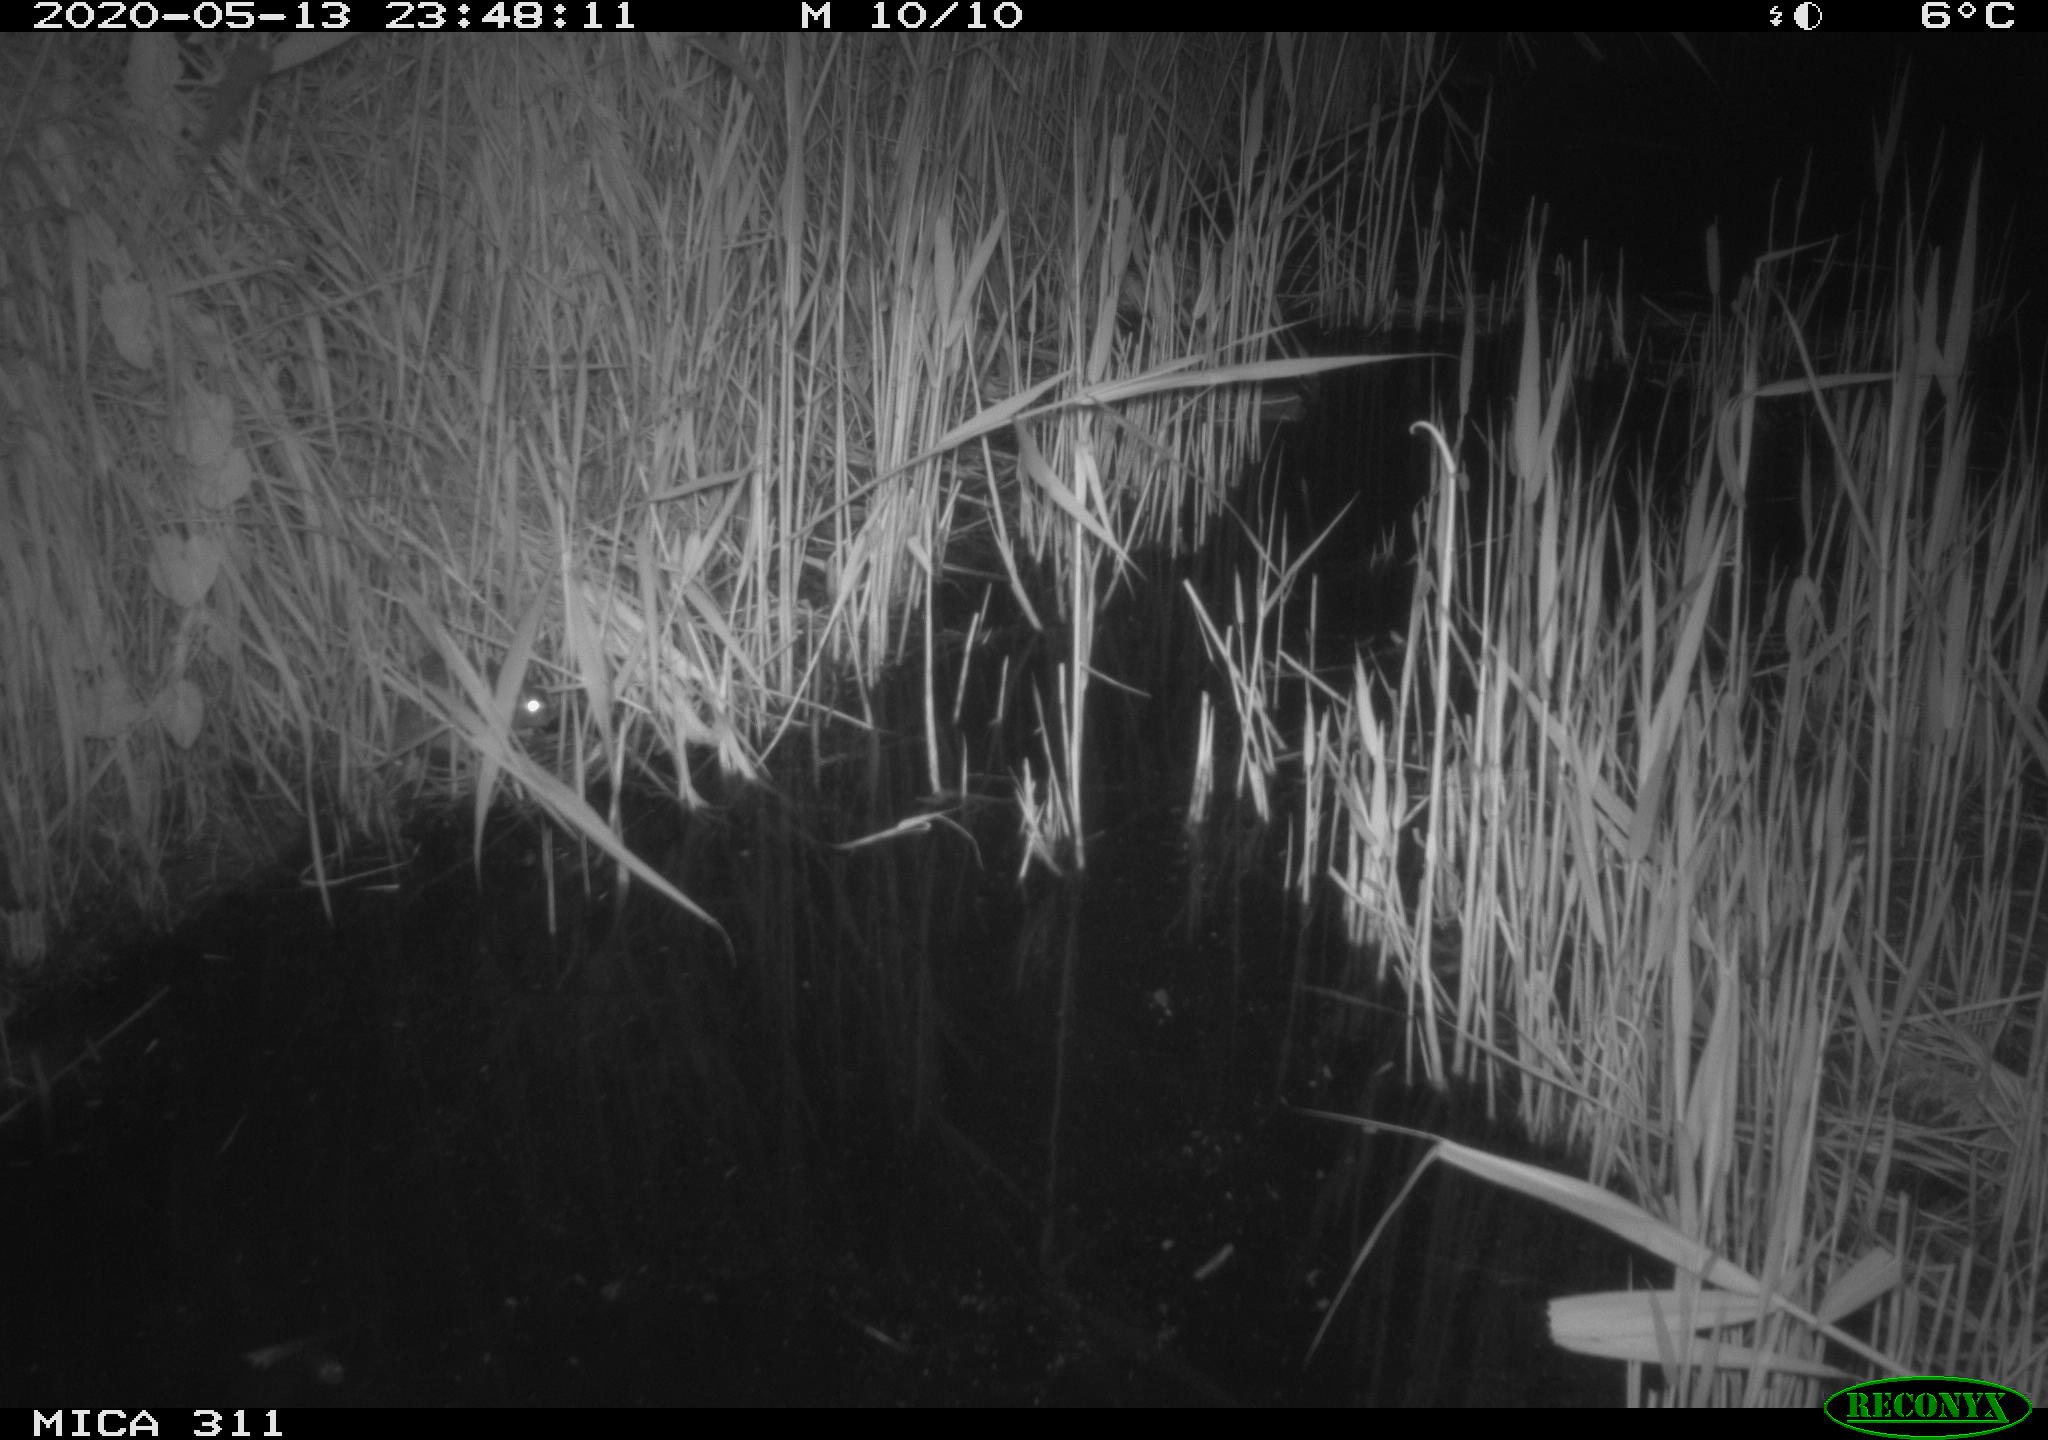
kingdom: Animalia
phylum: Chordata
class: Mammalia
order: Rodentia
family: Muridae
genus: Rattus
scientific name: Rattus norvegicus
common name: Brown rat
